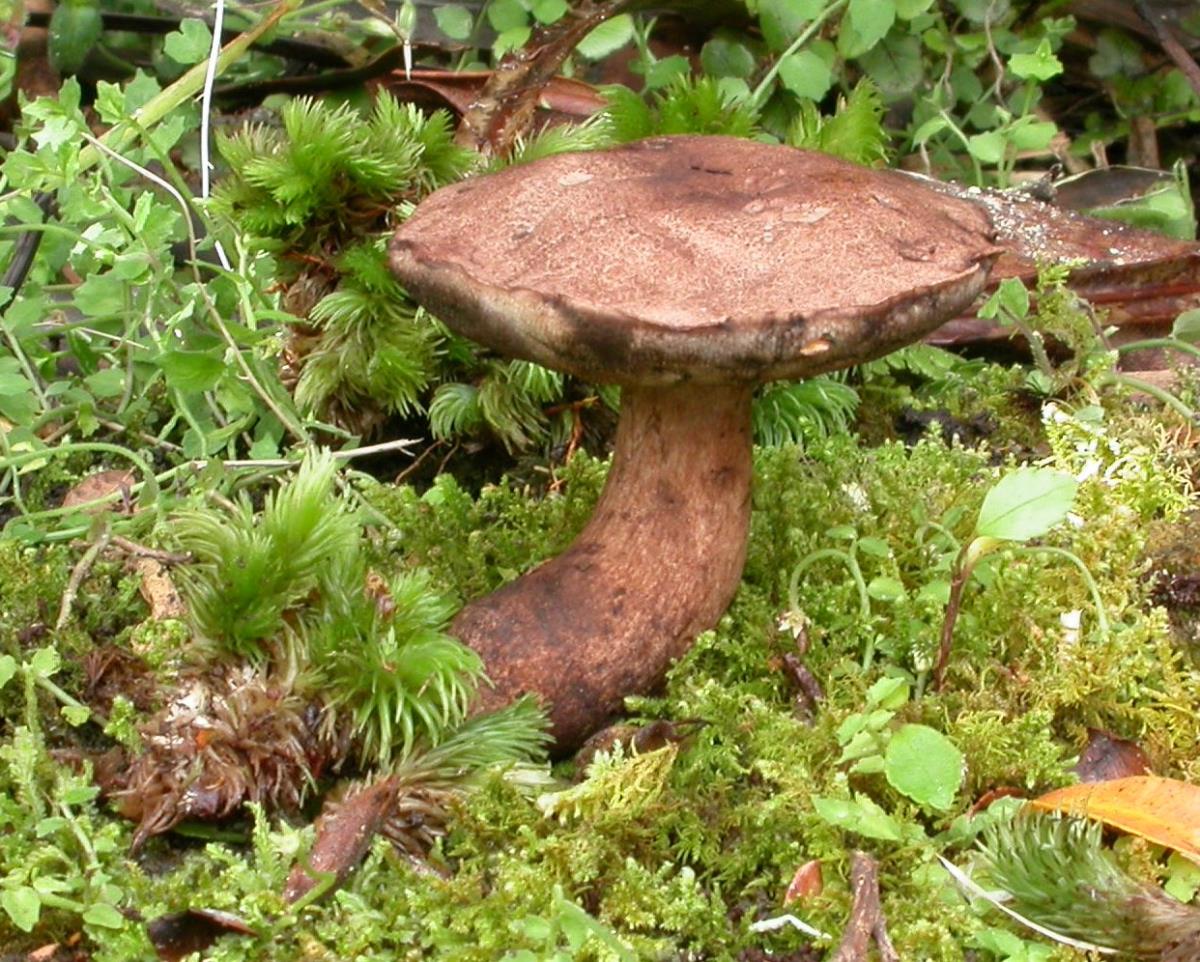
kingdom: Fungi
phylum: Basidiomycota
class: Agaricomycetes
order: Boletales
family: Boletaceae
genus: Porphyrellus
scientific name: Porphyrellus brunneus
